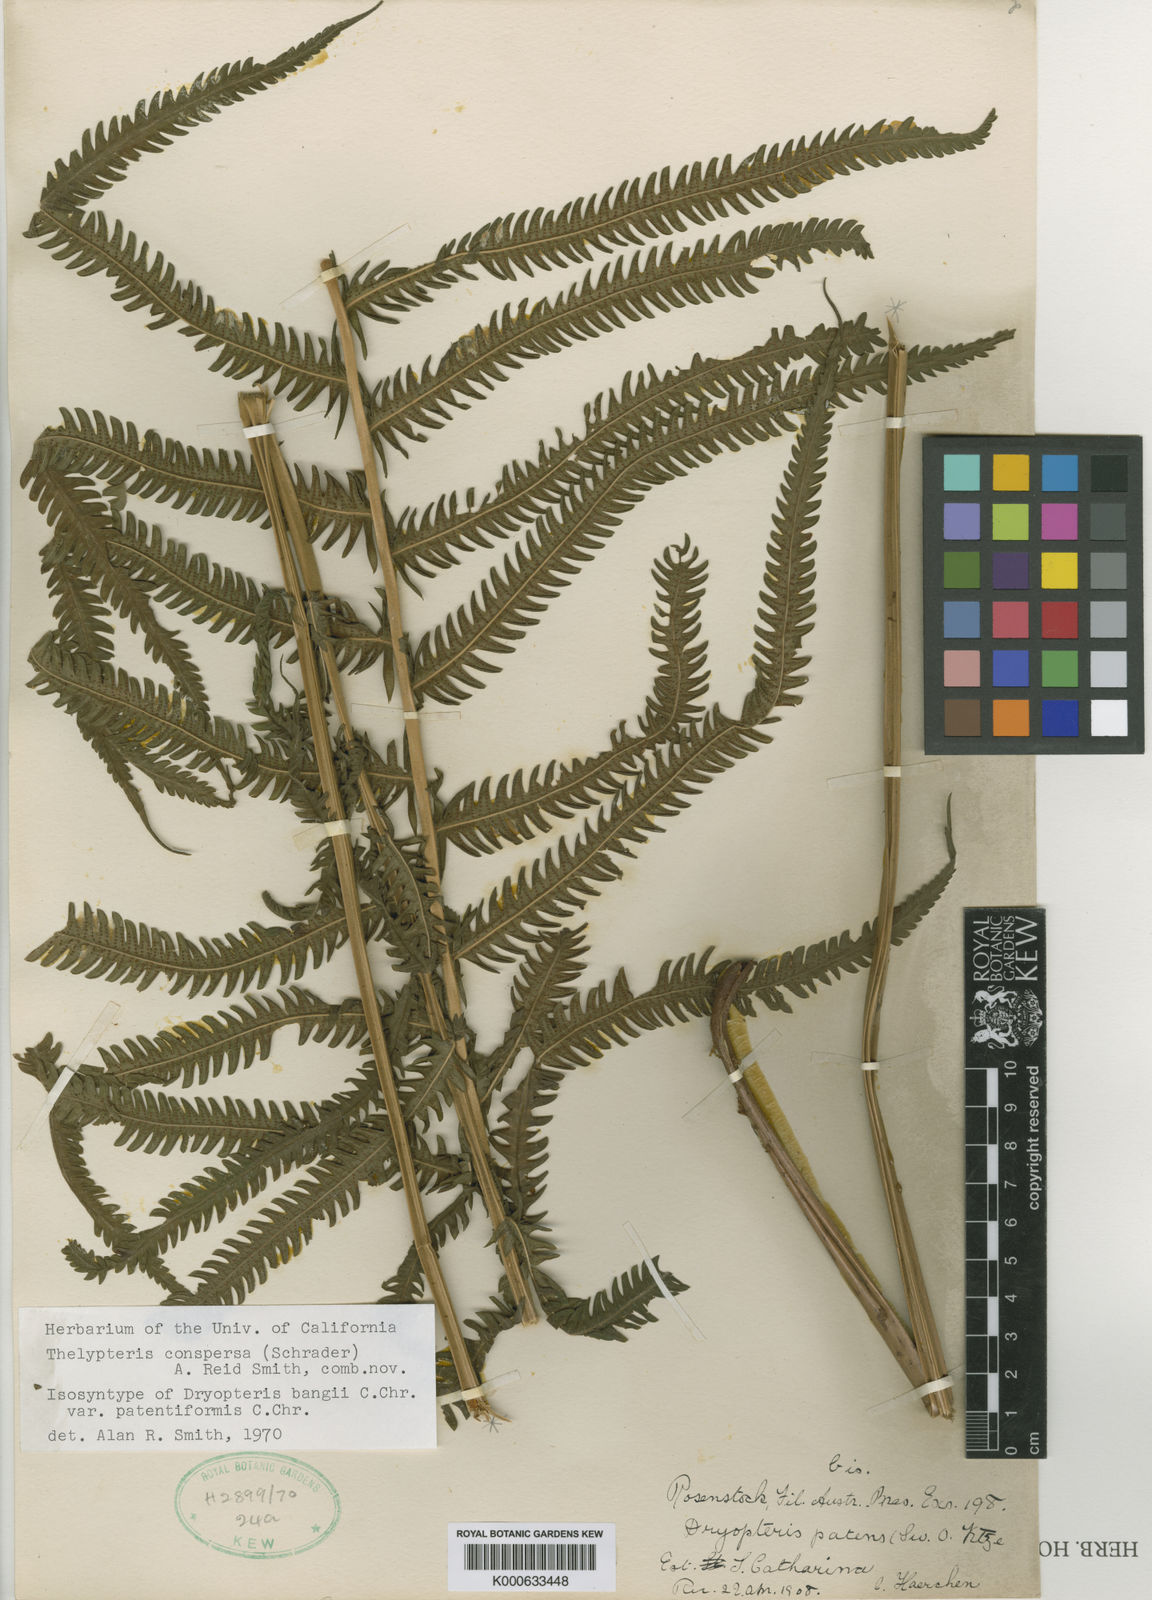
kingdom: Plantae
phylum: Tracheophyta
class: Polypodiopsida
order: Polypodiales
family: Thelypteridaceae
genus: Christella
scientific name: Christella
